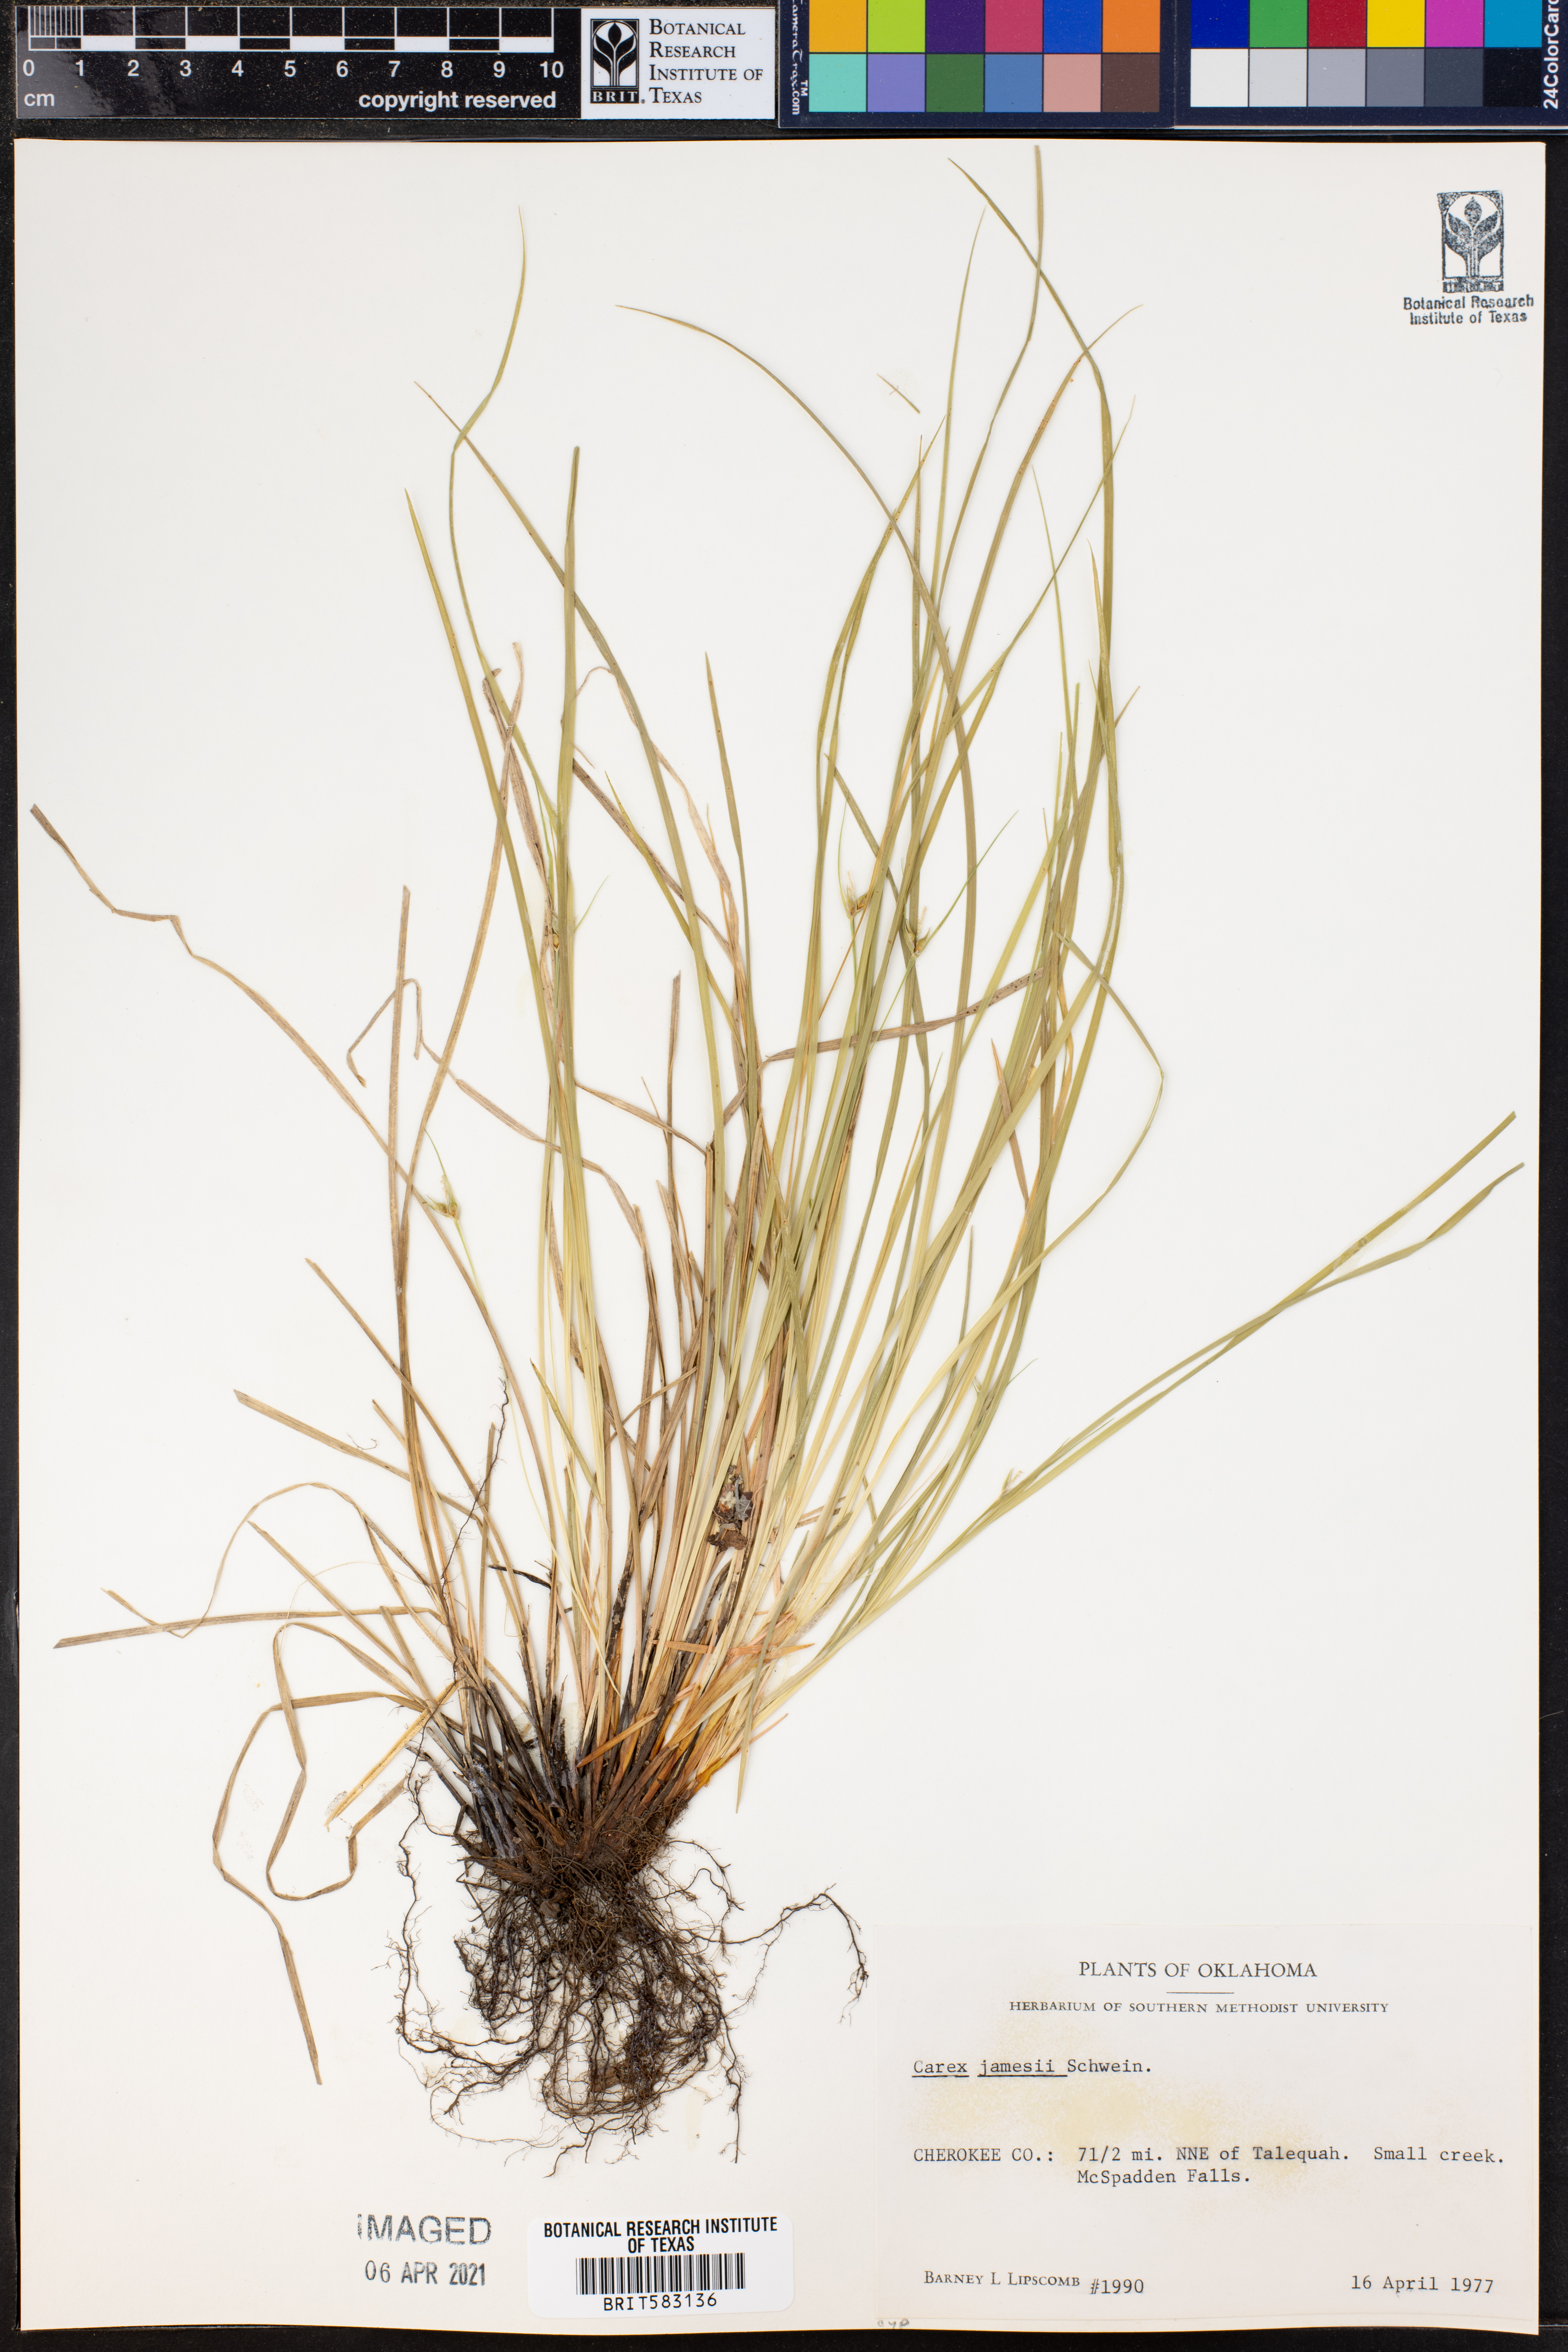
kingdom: Plantae
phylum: Tracheophyta
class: Liliopsida
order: Poales
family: Cyperaceae
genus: Carex
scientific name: Carex jamesii
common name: Grass sedge
